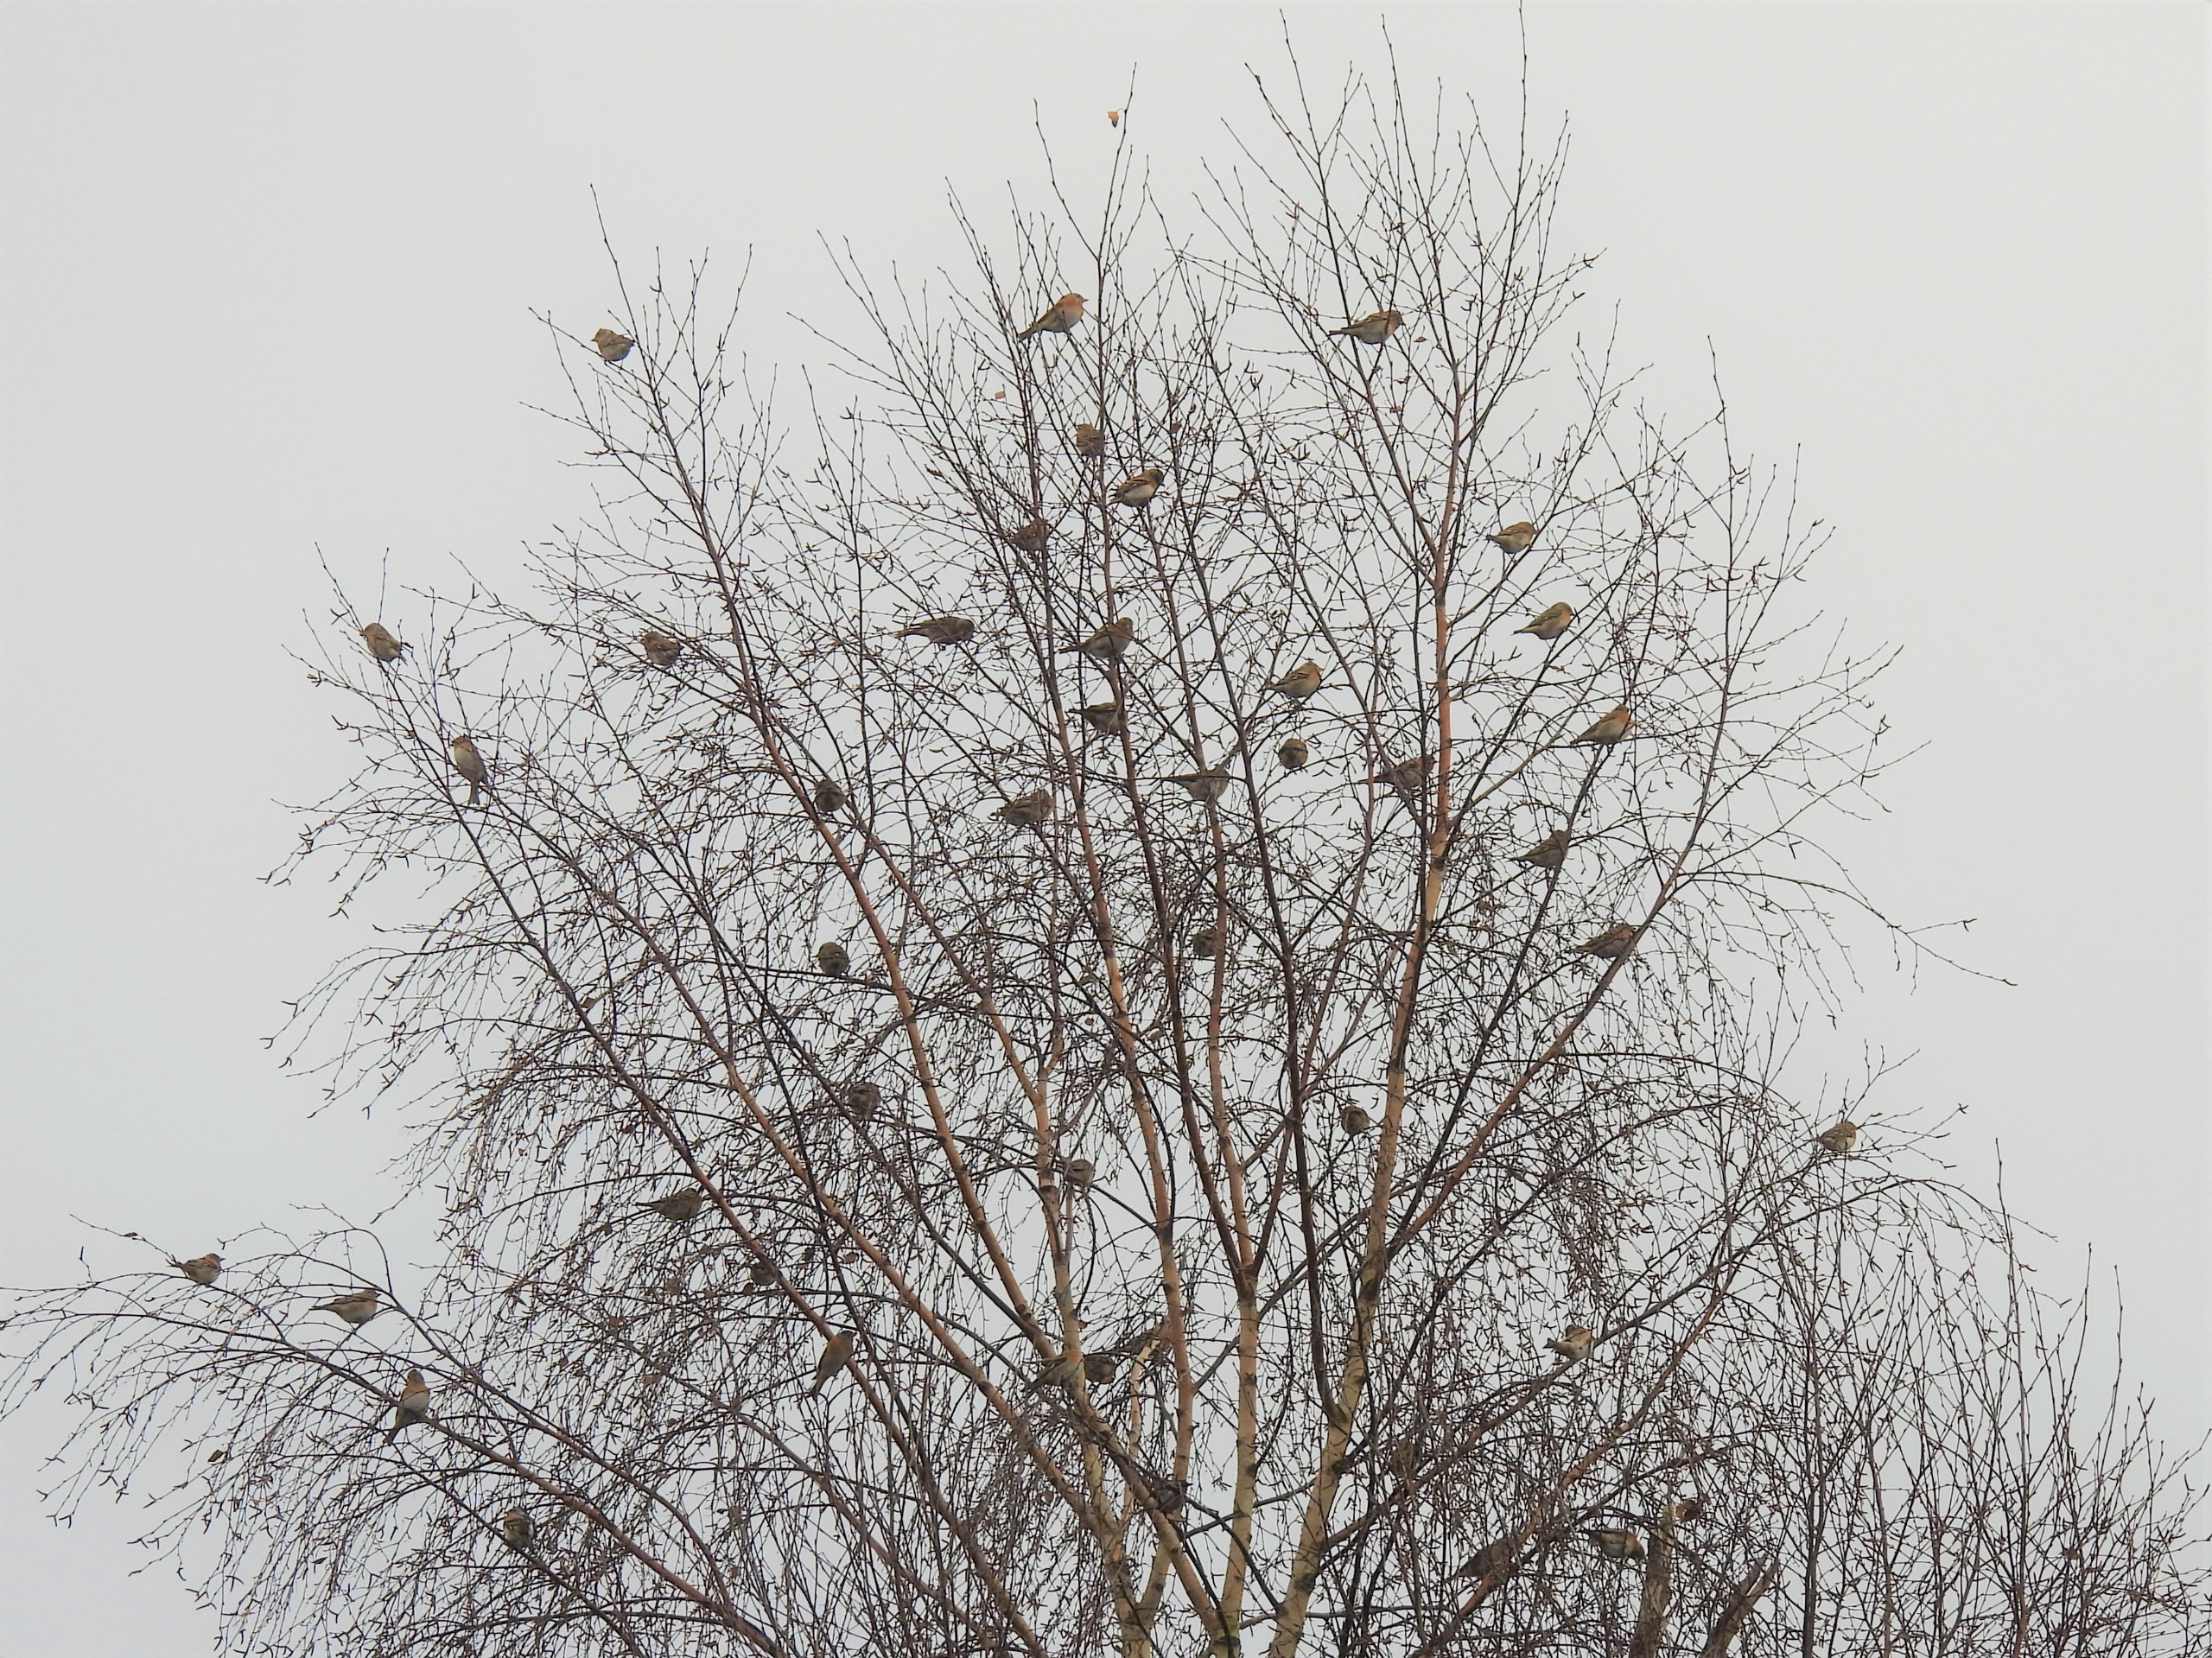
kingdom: Animalia
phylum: Chordata
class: Aves
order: Passeriformes
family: Fringillidae
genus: Fringilla
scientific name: Fringilla montifringilla
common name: Kvækerfinke
